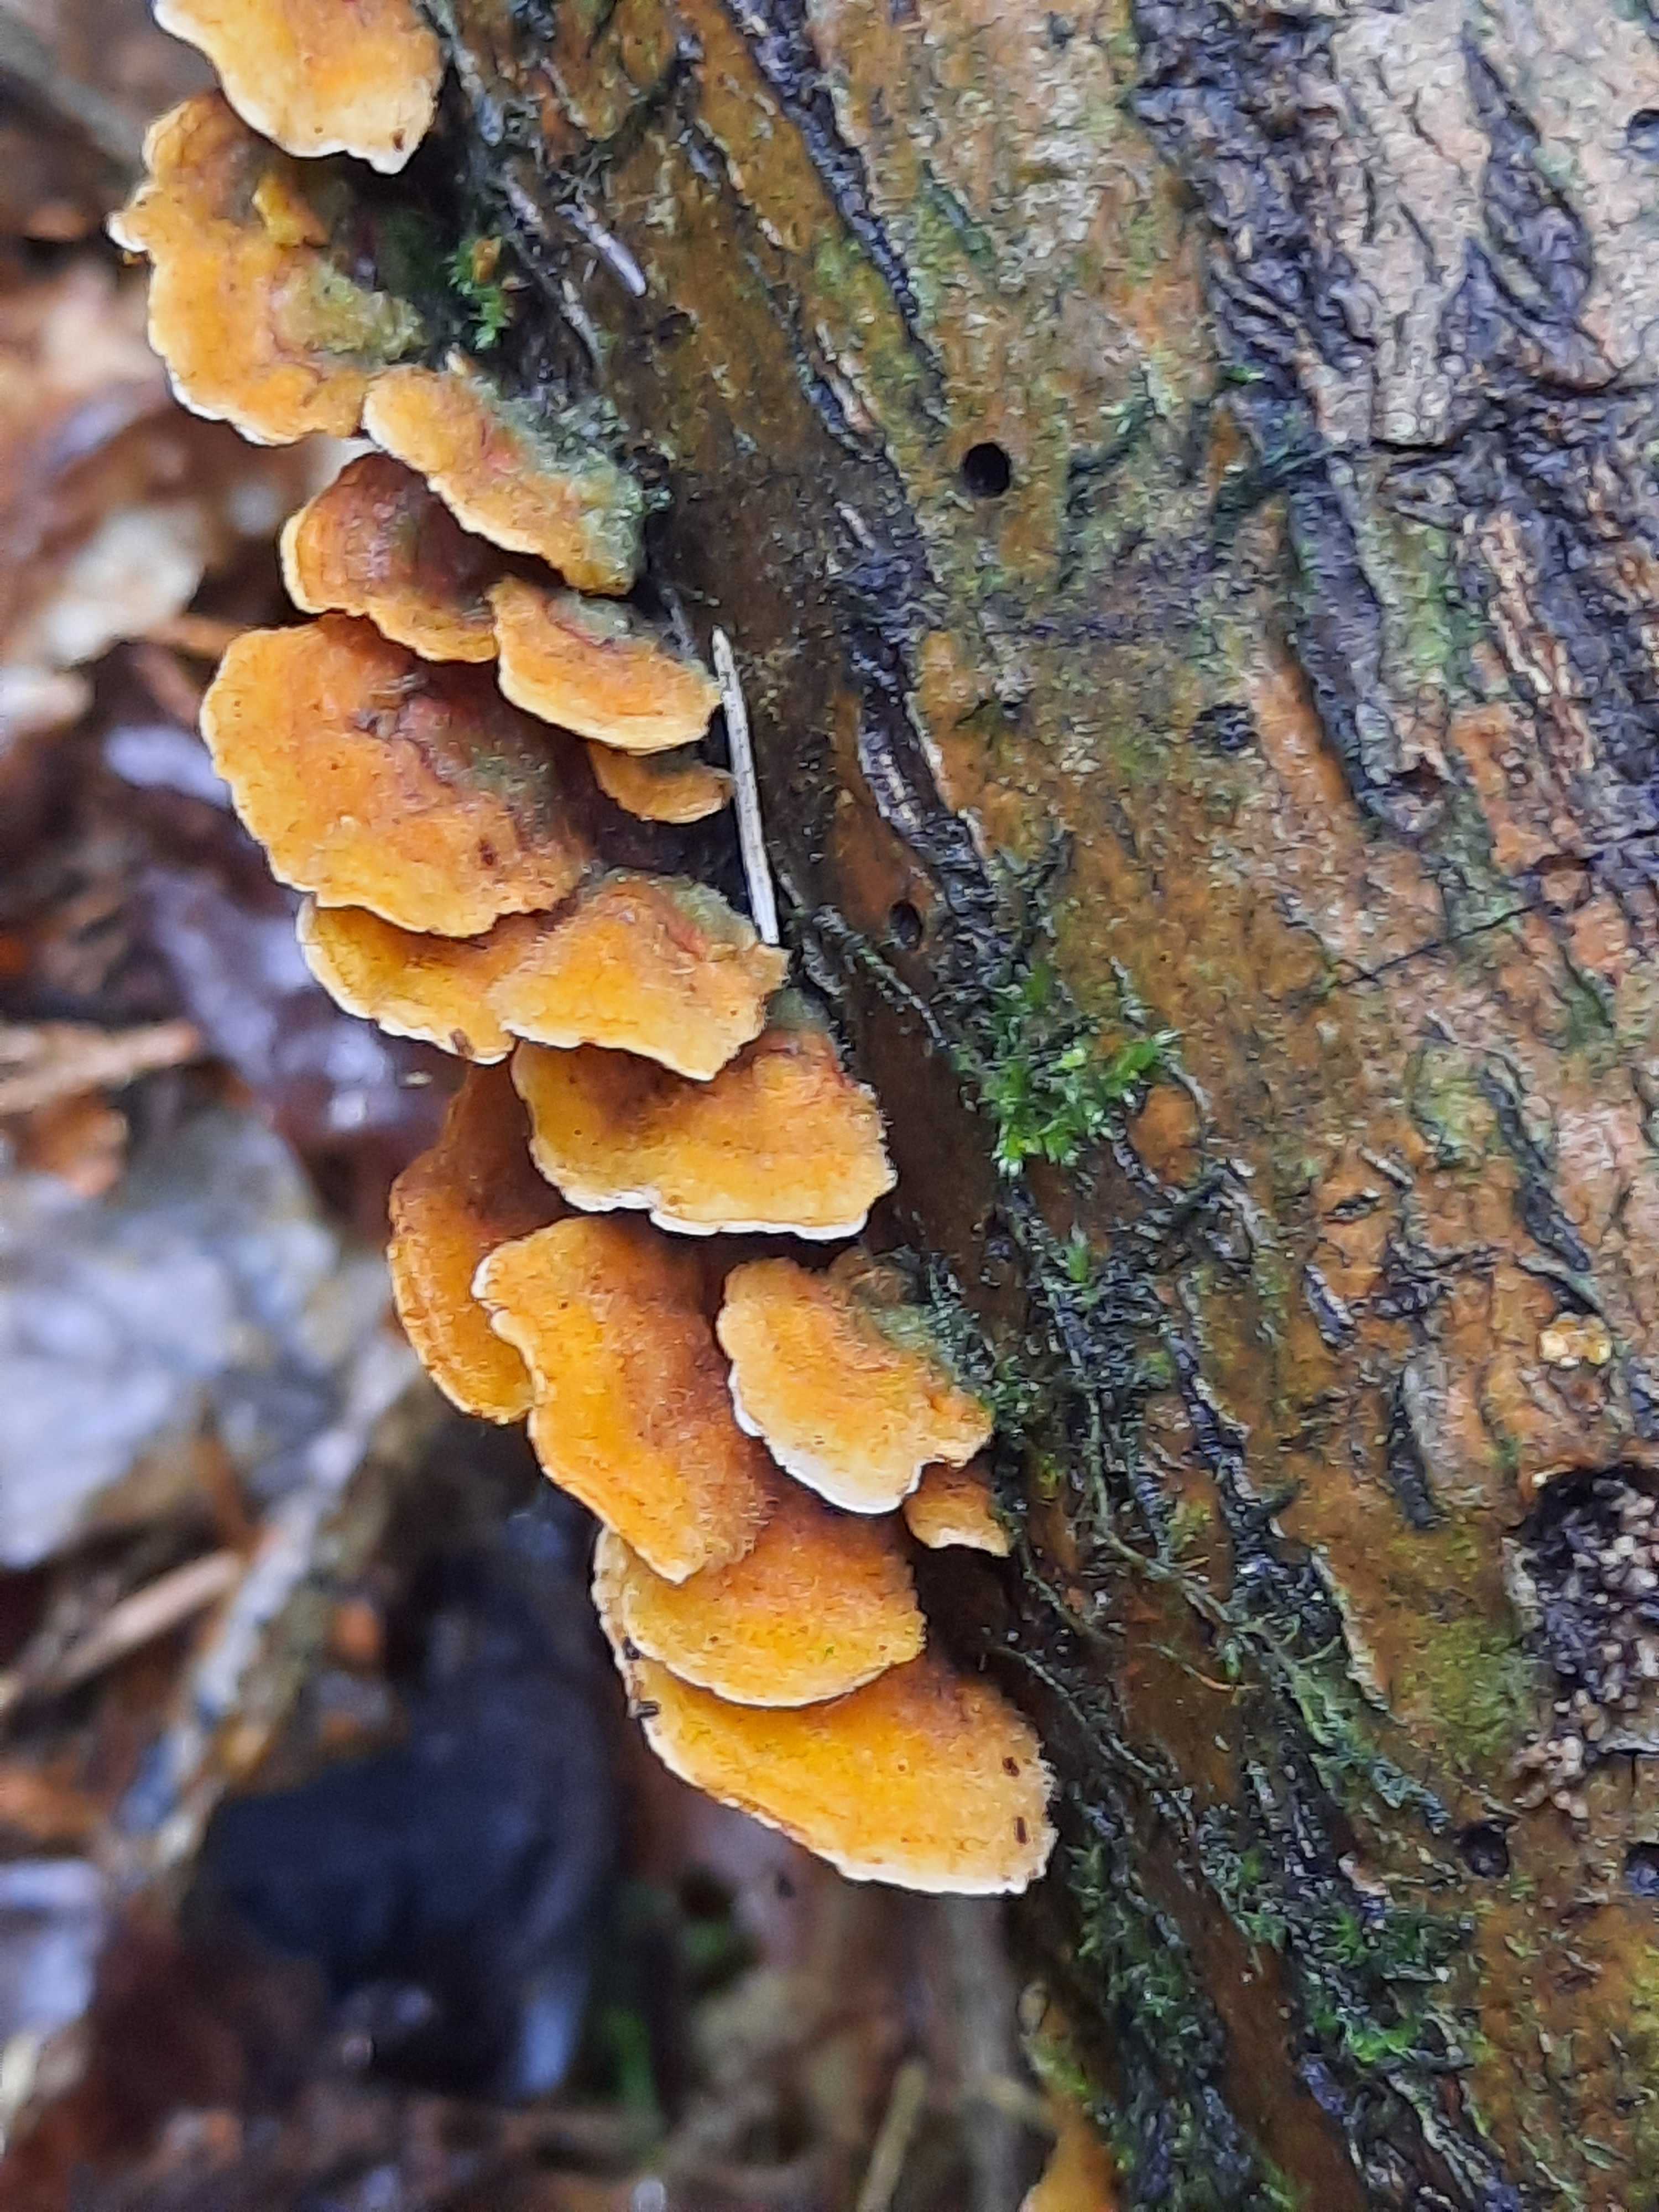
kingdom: Fungi
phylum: Basidiomycota
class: Agaricomycetes
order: Russulales
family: Stereaceae
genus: Stereum
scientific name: Stereum hirsutum
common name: håret lædersvamp
